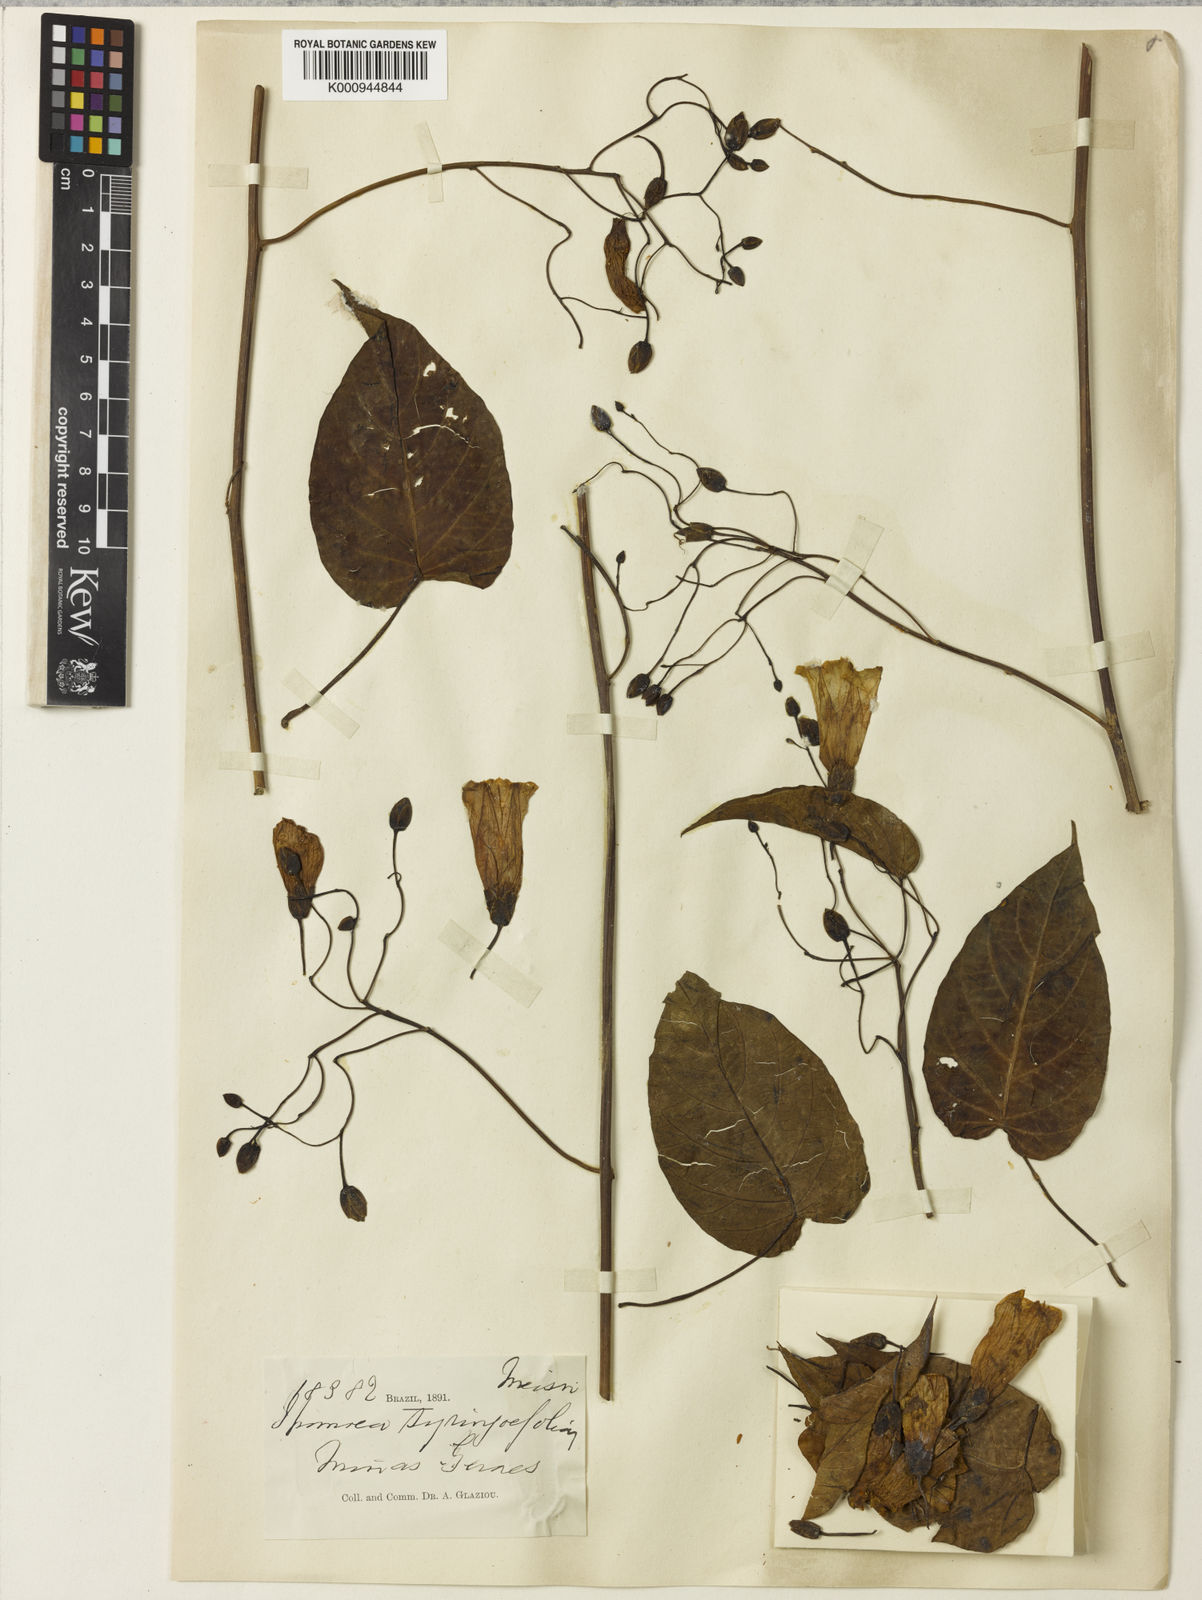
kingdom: Plantae
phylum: Tracheophyta
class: Magnoliopsida
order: Solanales
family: Convolvulaceae
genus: Ipomoea
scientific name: Ipomoea
